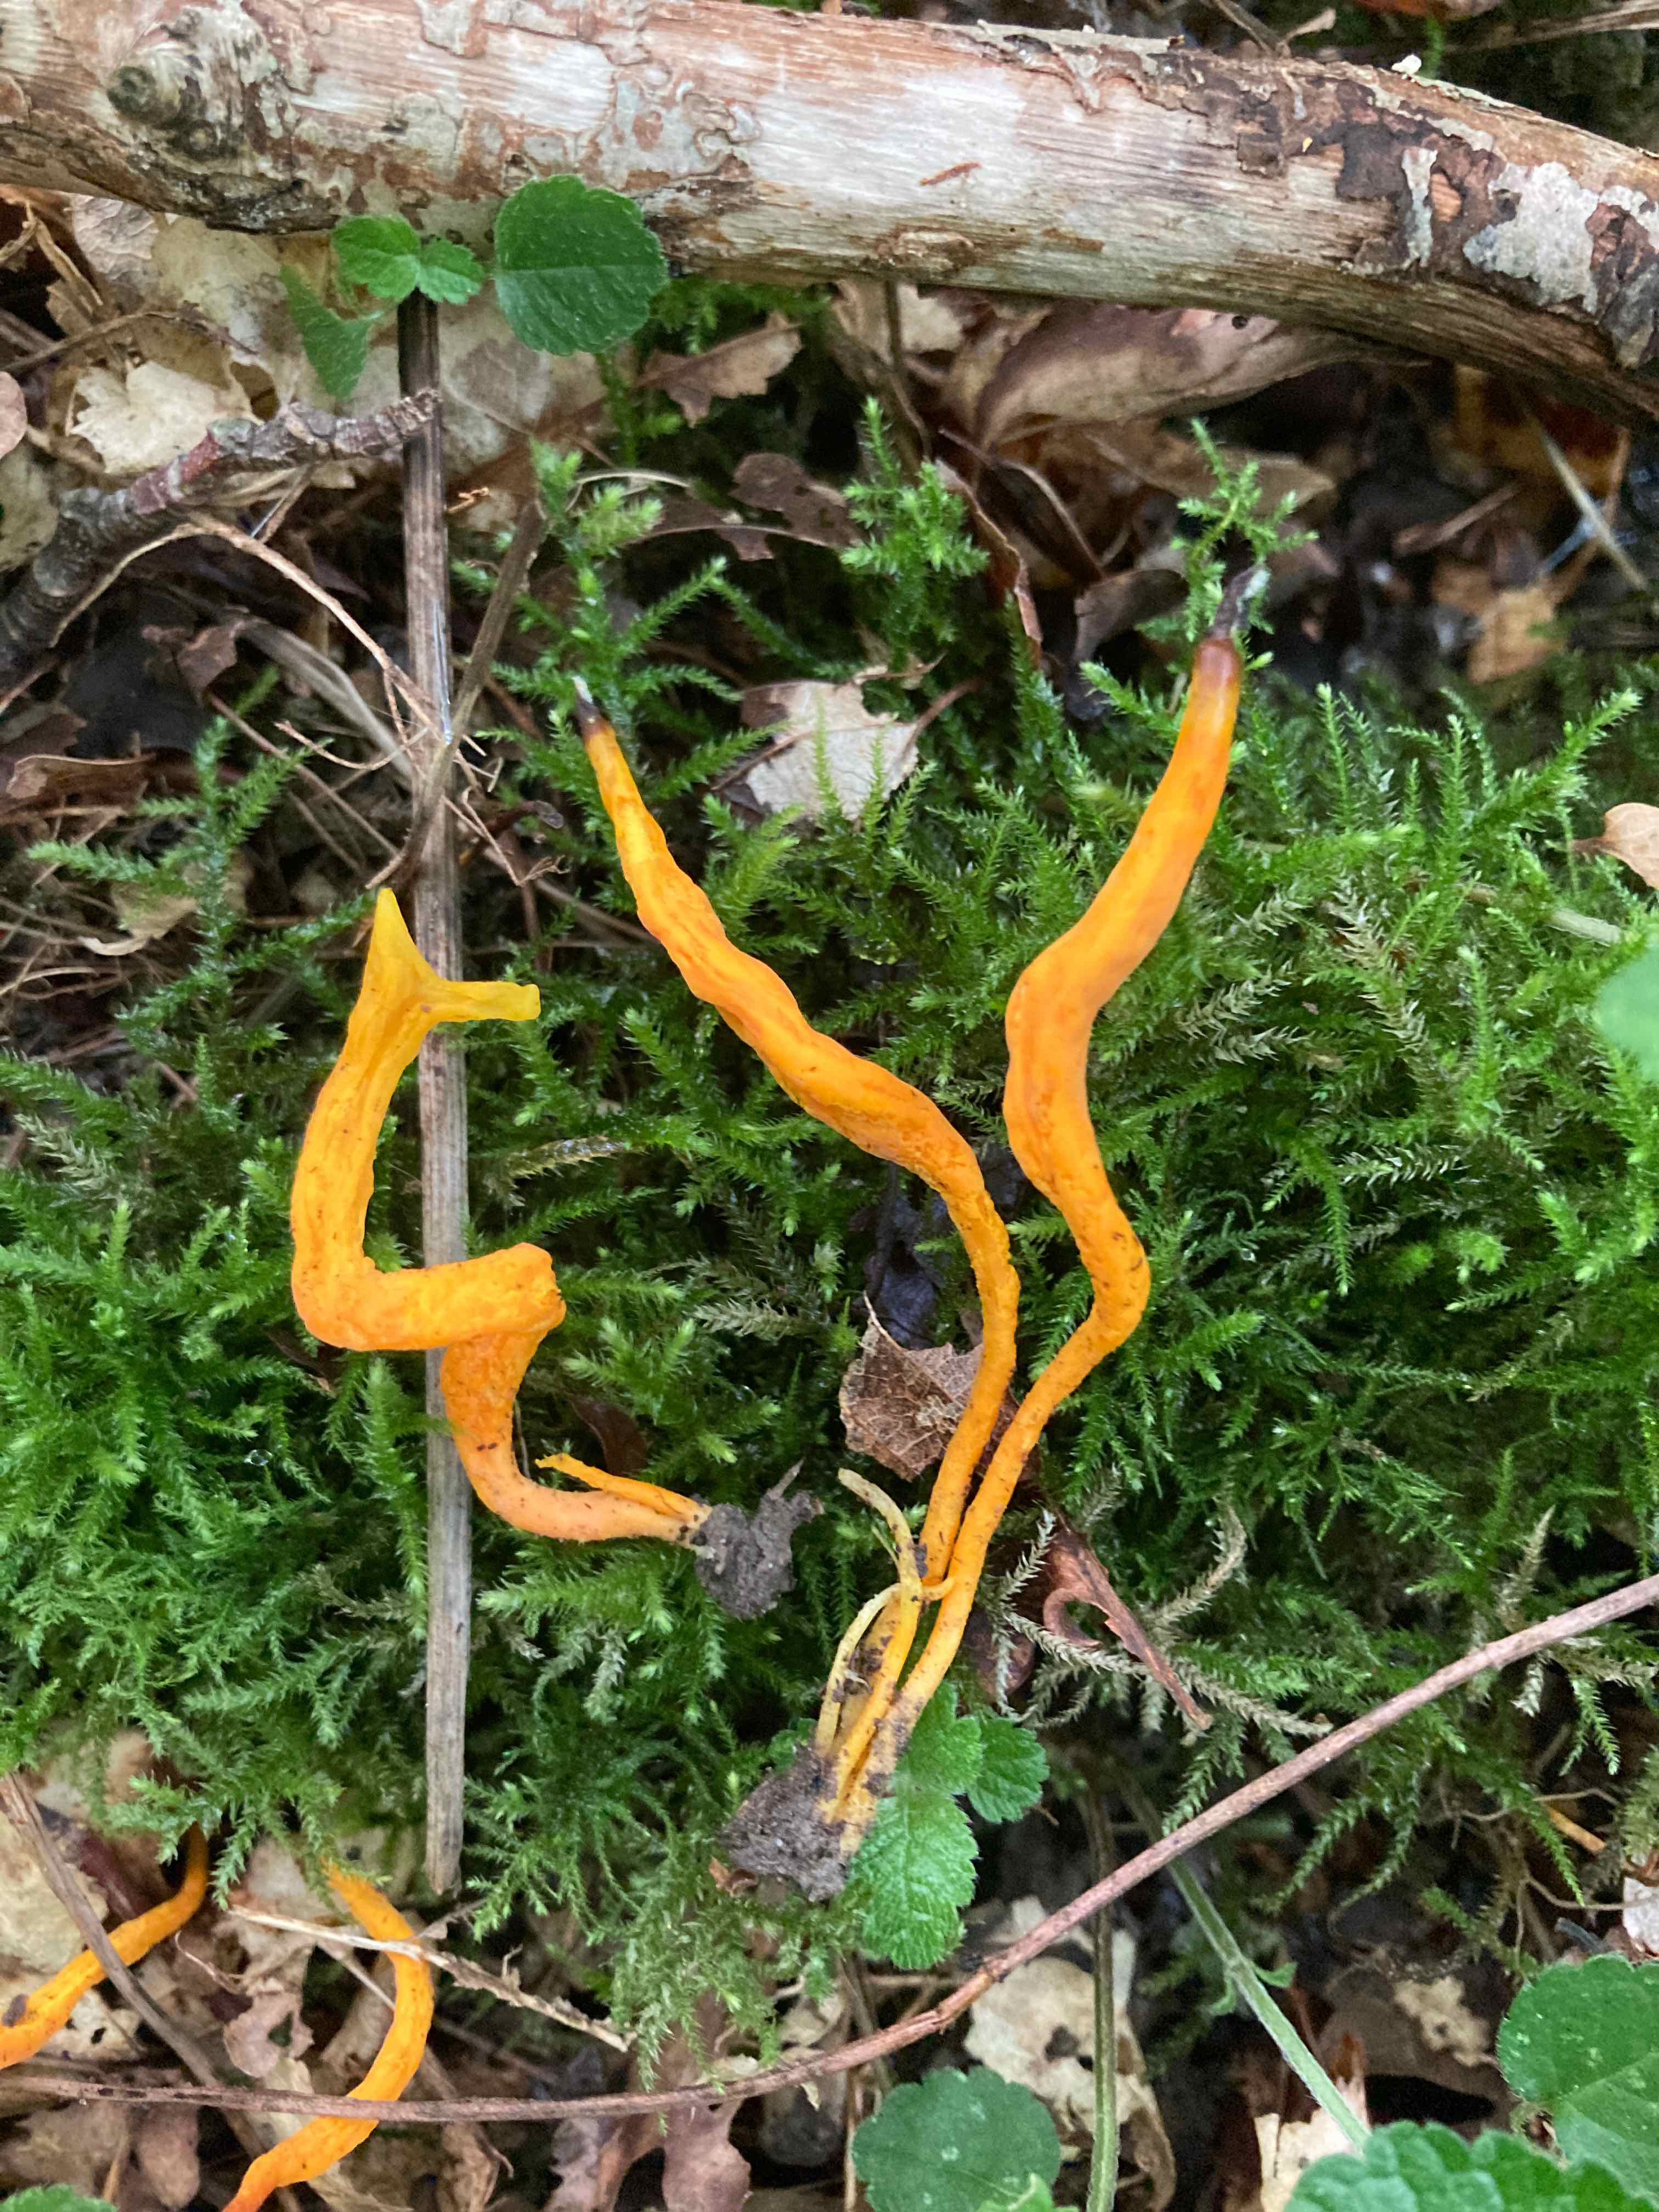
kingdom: Fungi
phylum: Basidiomycota
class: Agaricomycetes
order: Agaricales
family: Clavariaceae
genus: Clavulinopsis
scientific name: Clavulinopsis laeticolor
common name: flamme-køllesvamp
